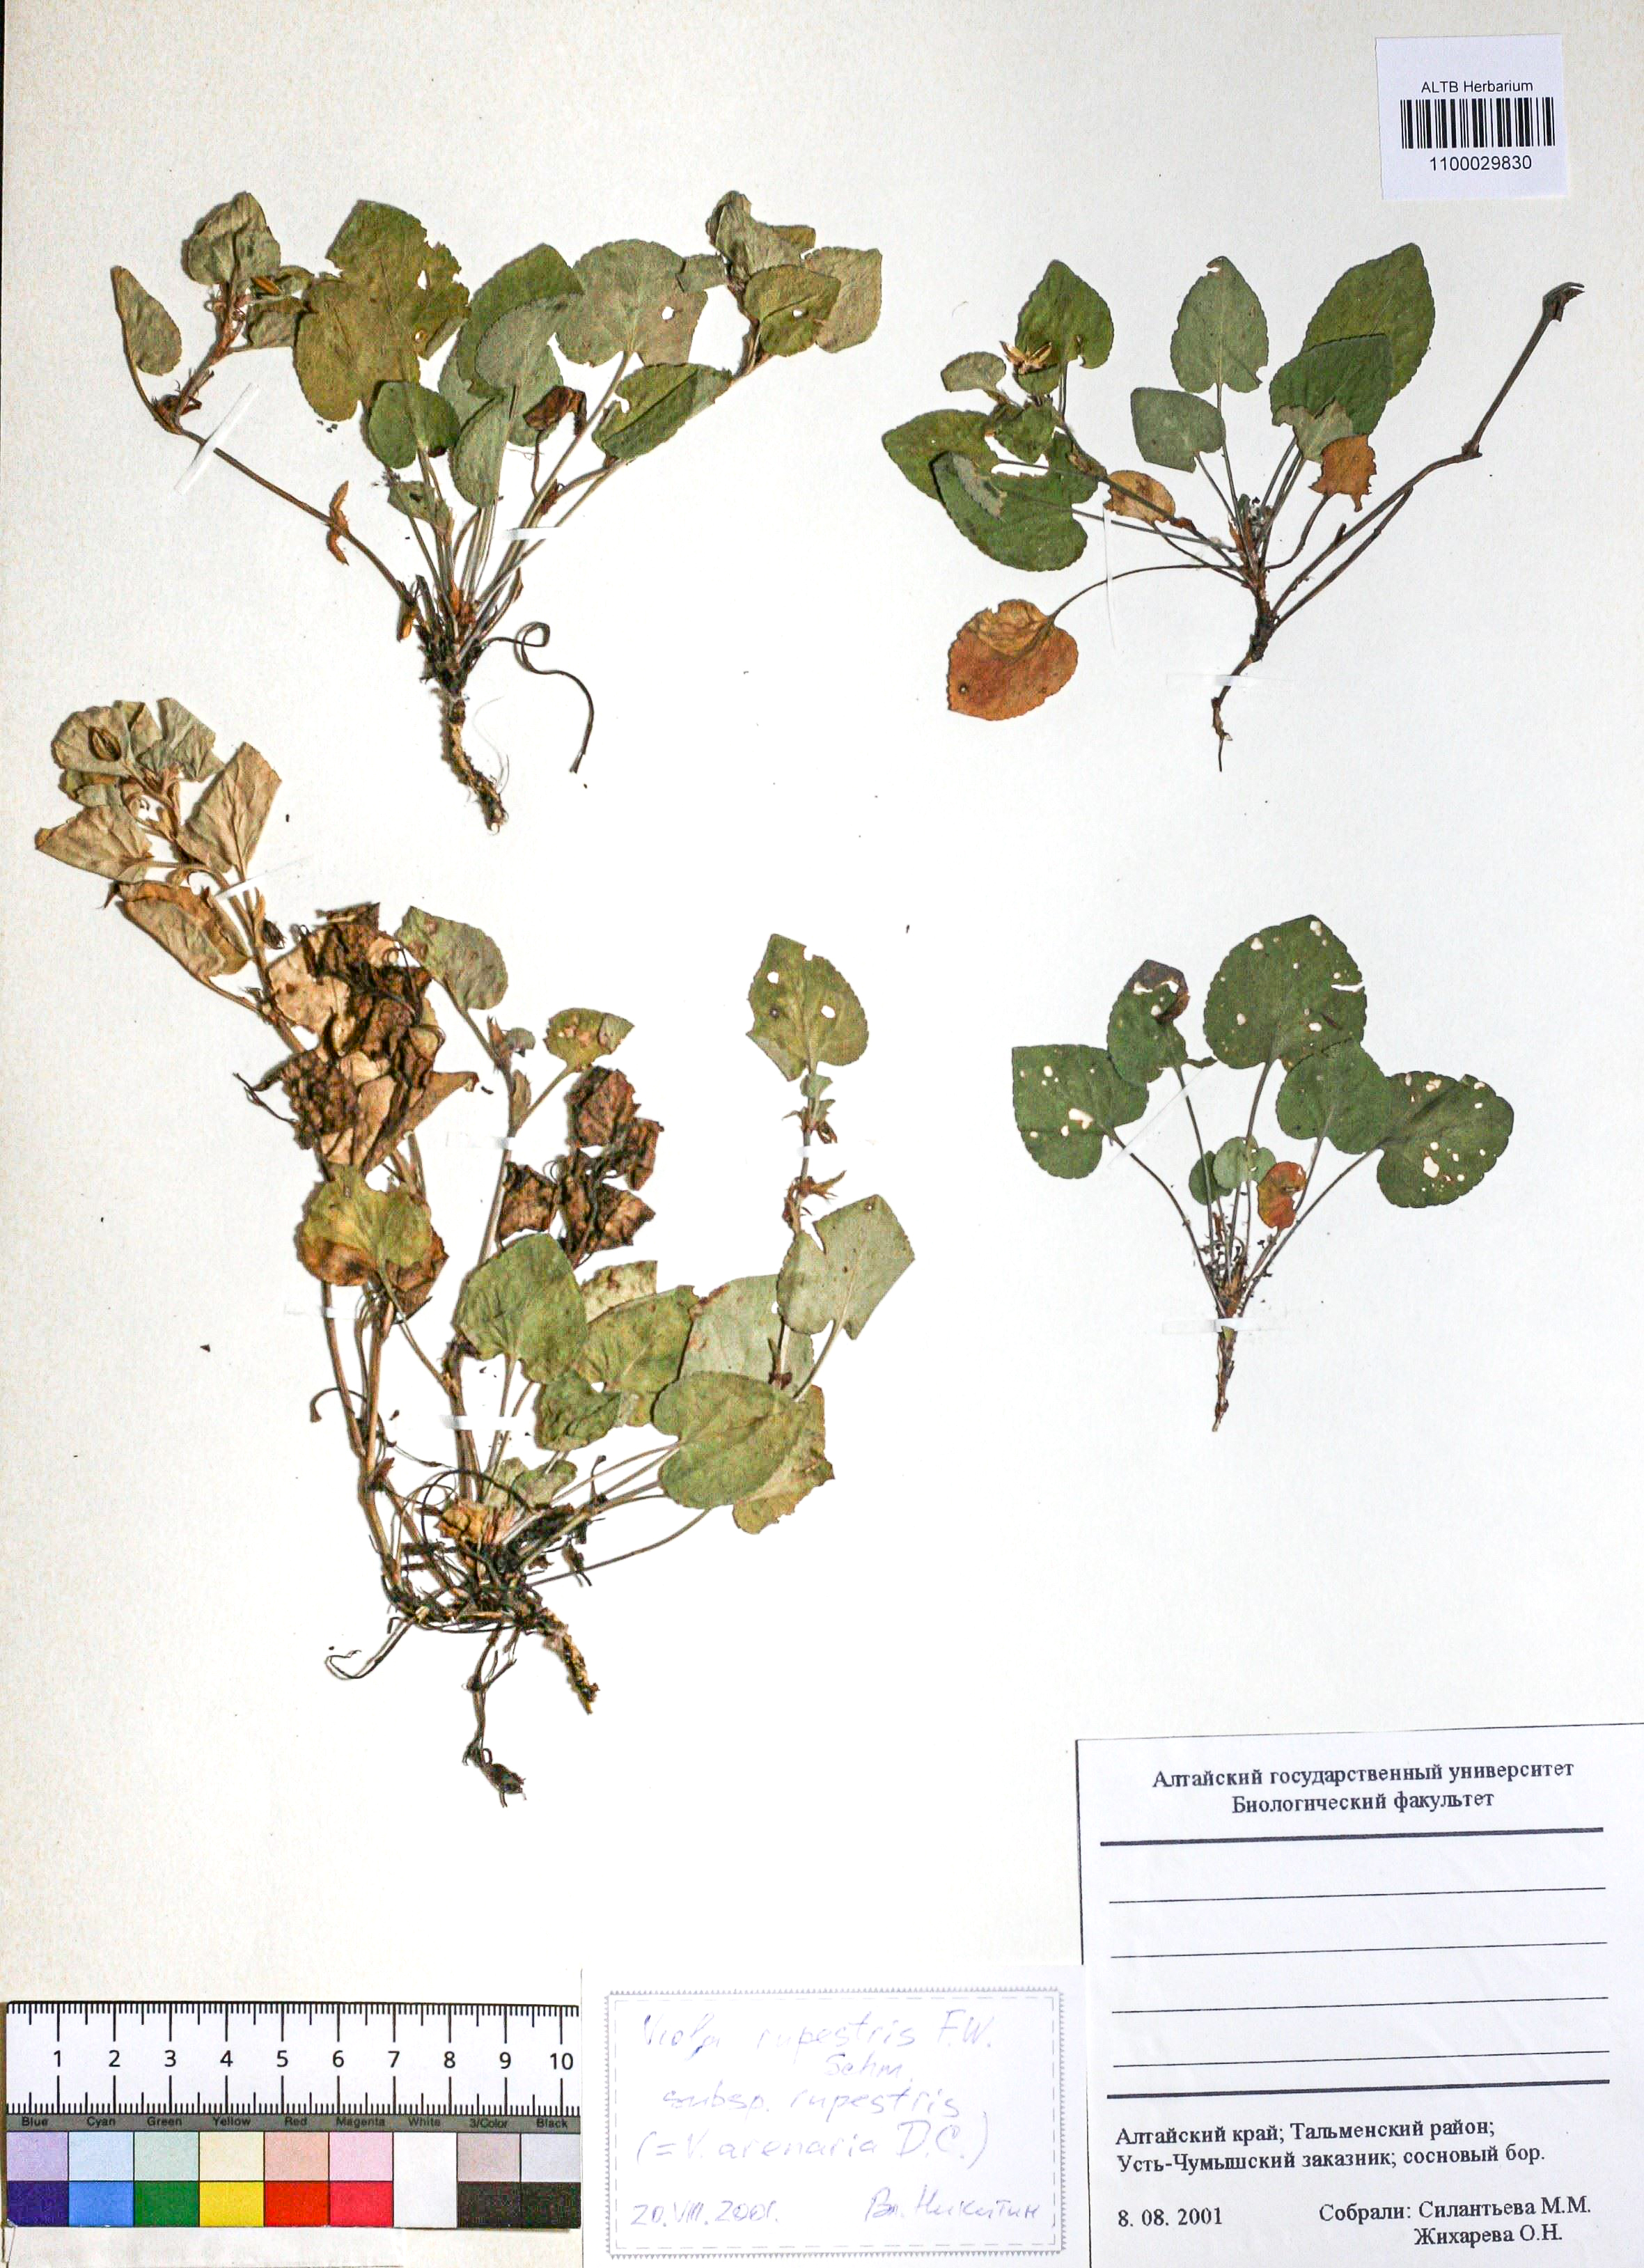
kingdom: Plantae
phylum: Tracheophyta
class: Magnoliopsida
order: Malpighiales
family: Violaceae
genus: Viola
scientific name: Viola rupestris
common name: Teesdale violet
